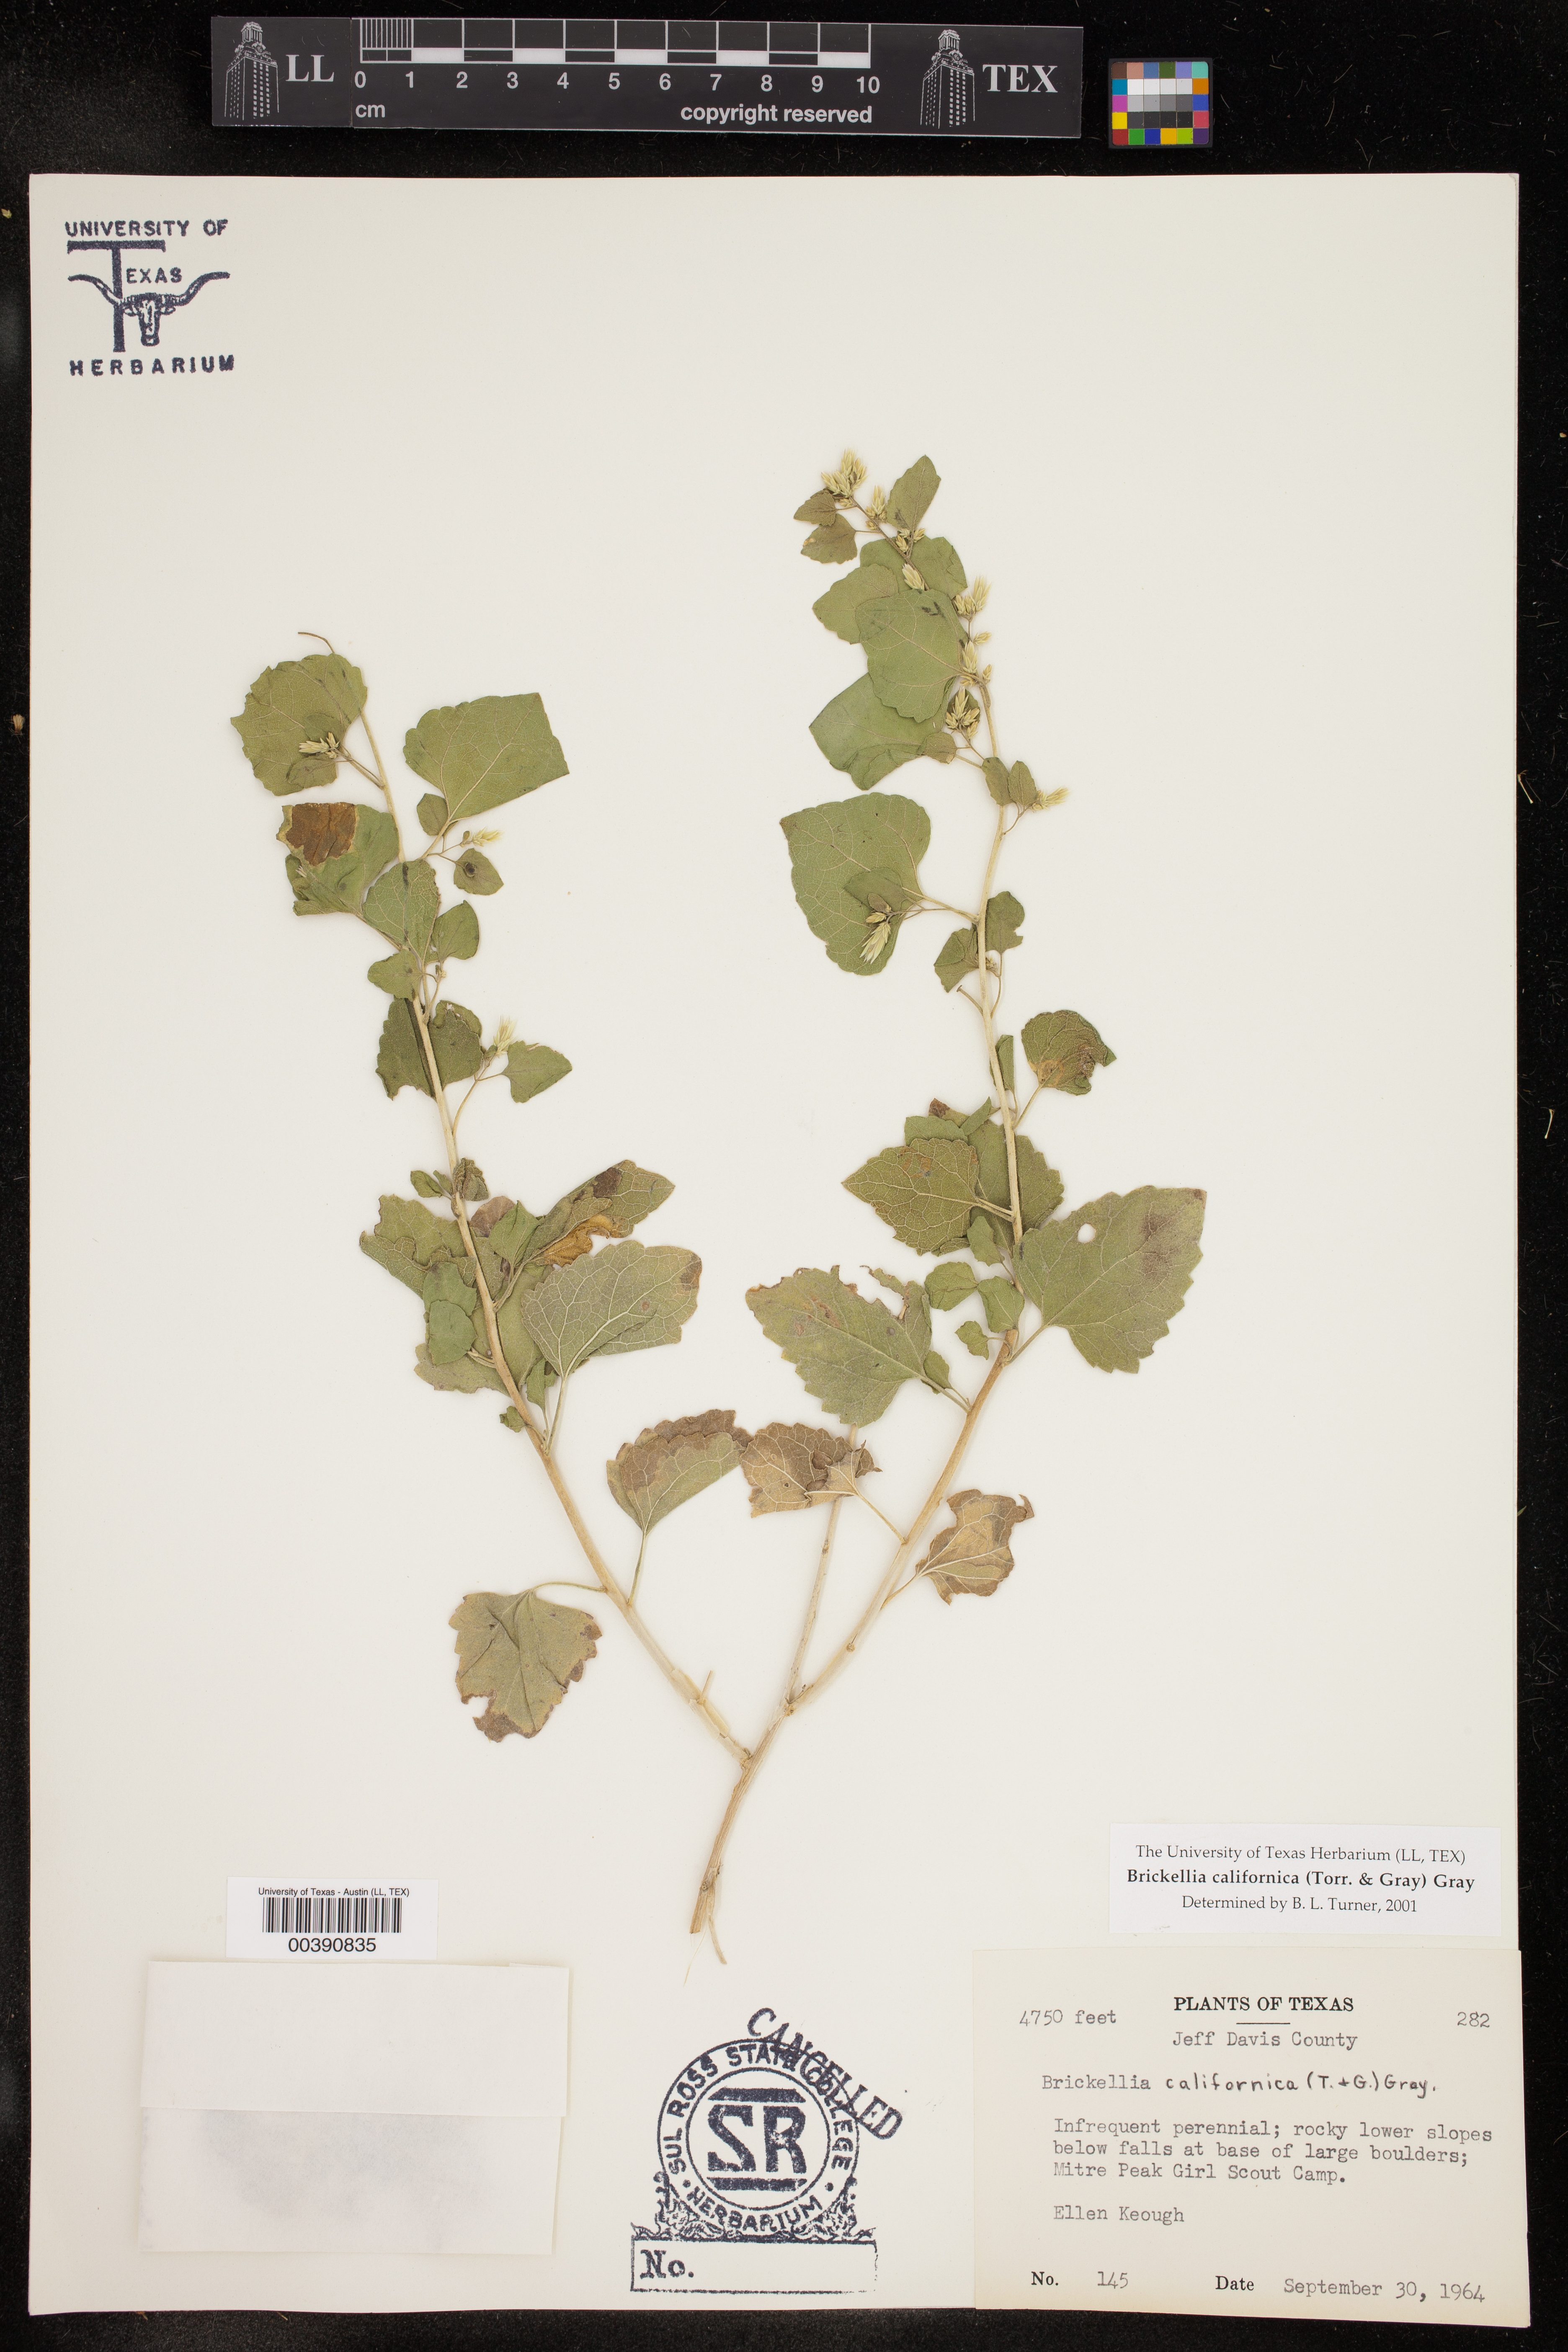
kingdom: Plantae
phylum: Tracheophyta
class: Magnoliopsida
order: Asterales
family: Asteraceae
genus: Brickellia
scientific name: Brickellia californica
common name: California brickellbush
